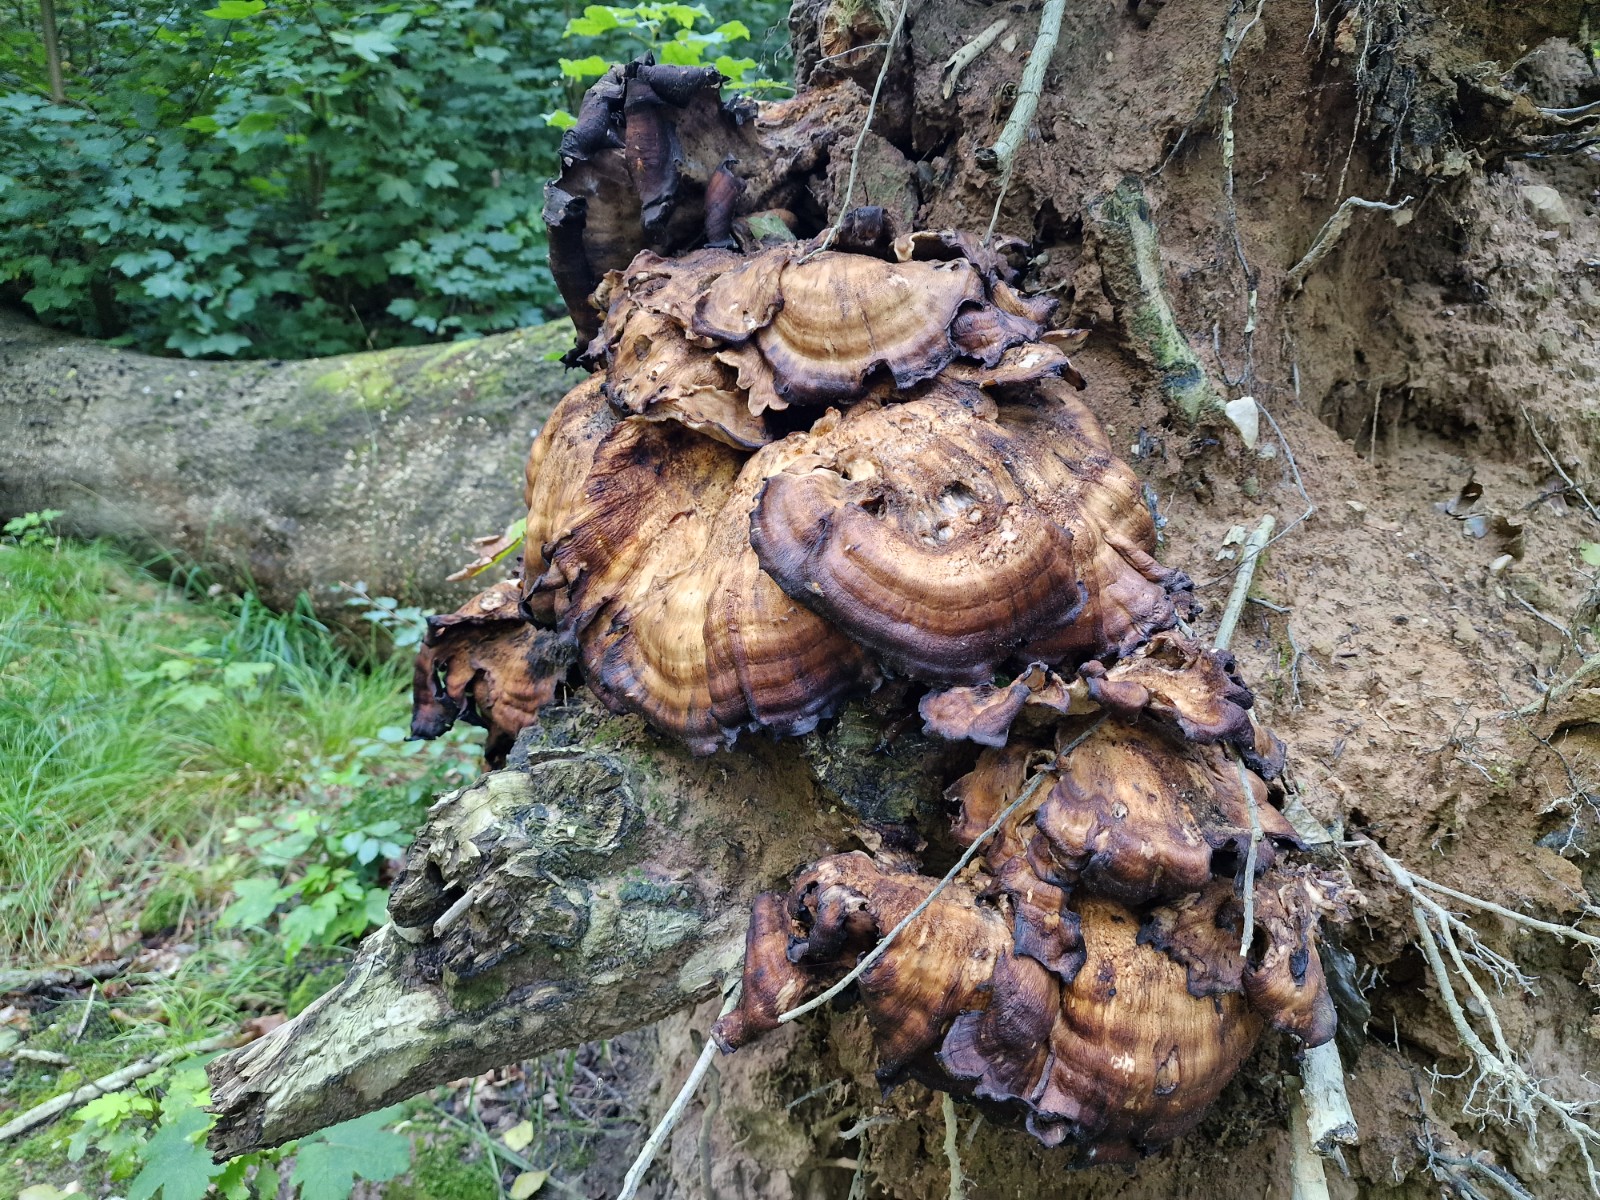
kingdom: Fungi
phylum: Basidiomycota
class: Agaricomycetes
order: Polyporales
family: Meripilaceae
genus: Meripilus
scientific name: Meripilus giganteus
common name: kæmpeporesvamp
